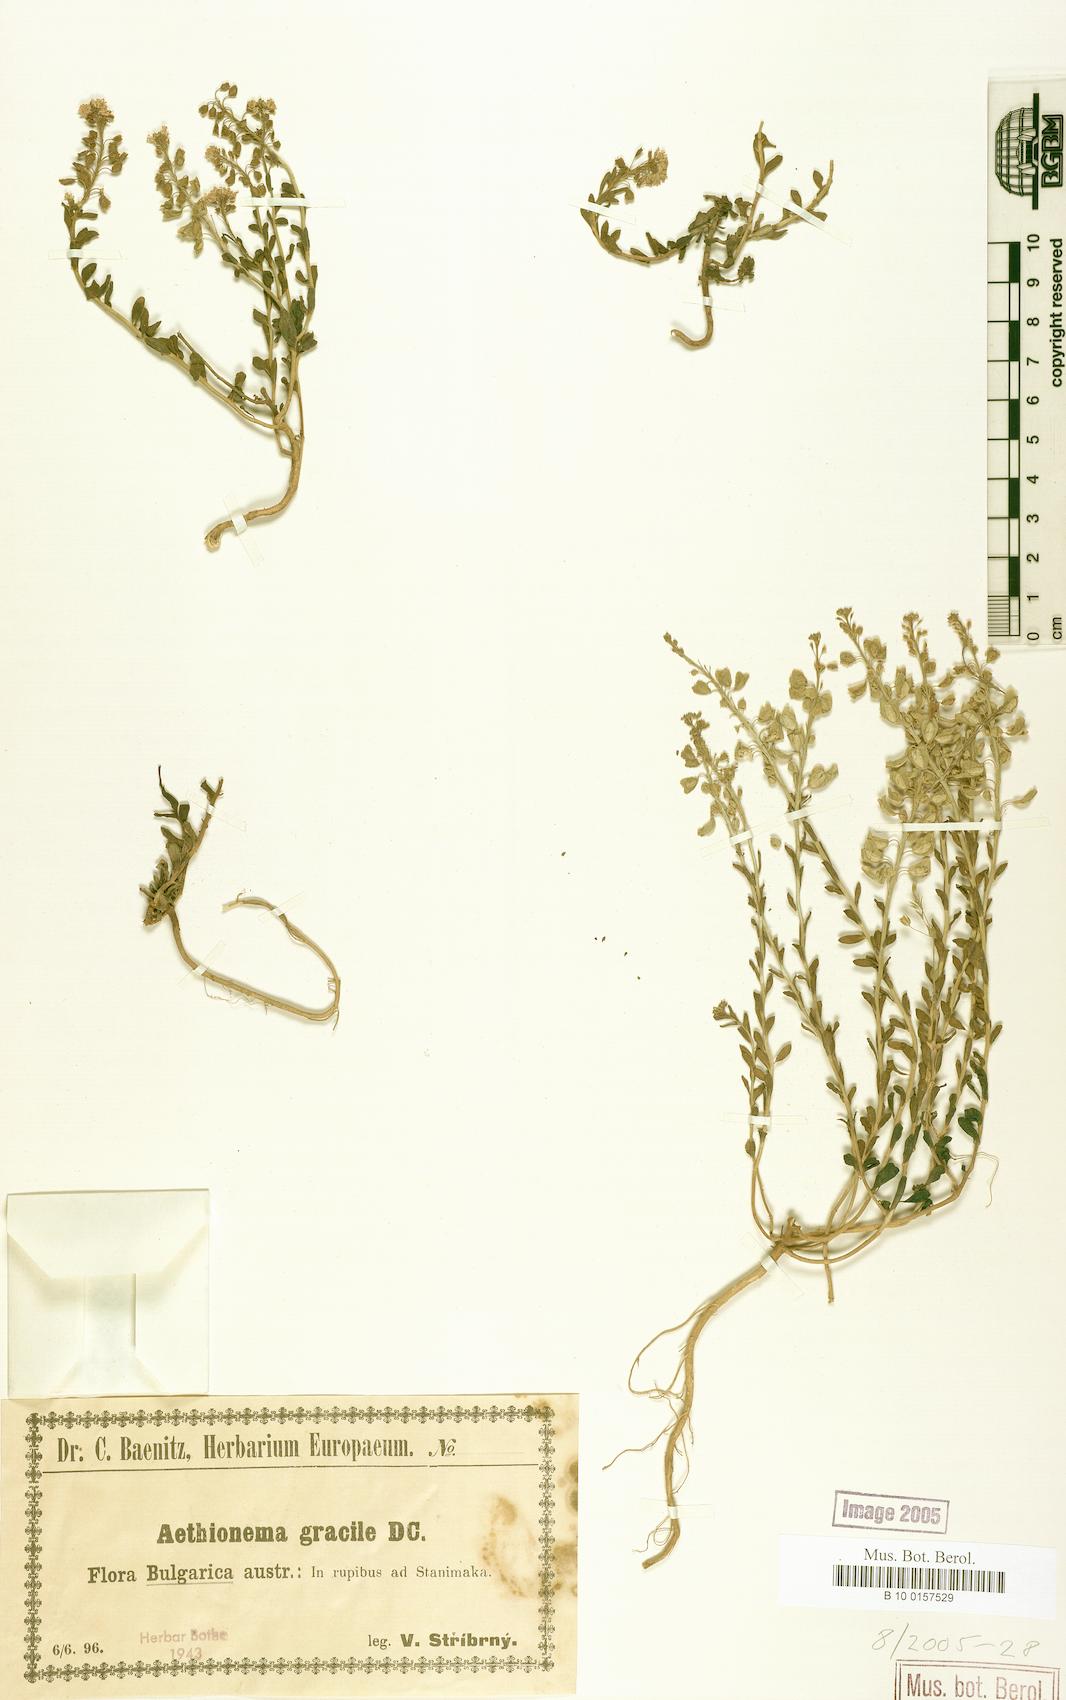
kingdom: Plantae
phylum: Tracheophyta
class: Magnoliopsida
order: Brassicales
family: Brassicaceae
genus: Aethionema
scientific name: Aethionema saxatile
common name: Burnt candytuft
